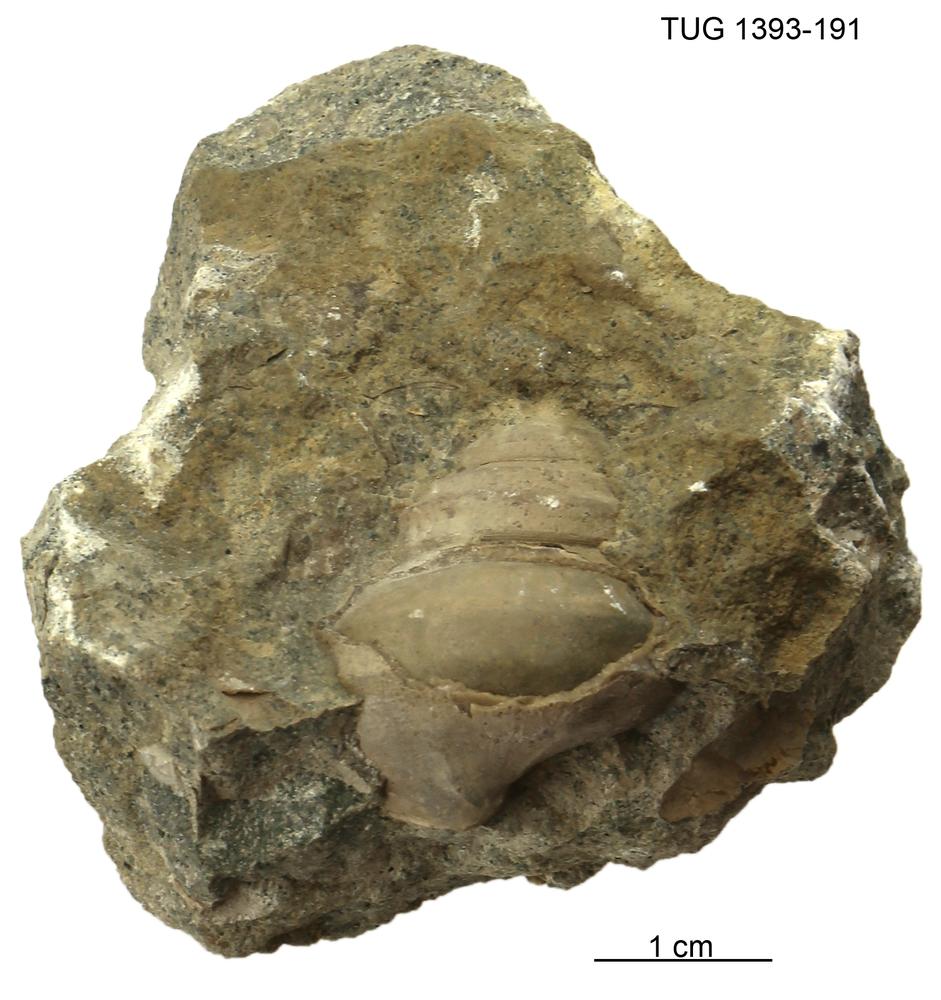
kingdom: Animalia
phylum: Mollusca
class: Gastropoda
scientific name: Gastropoda
